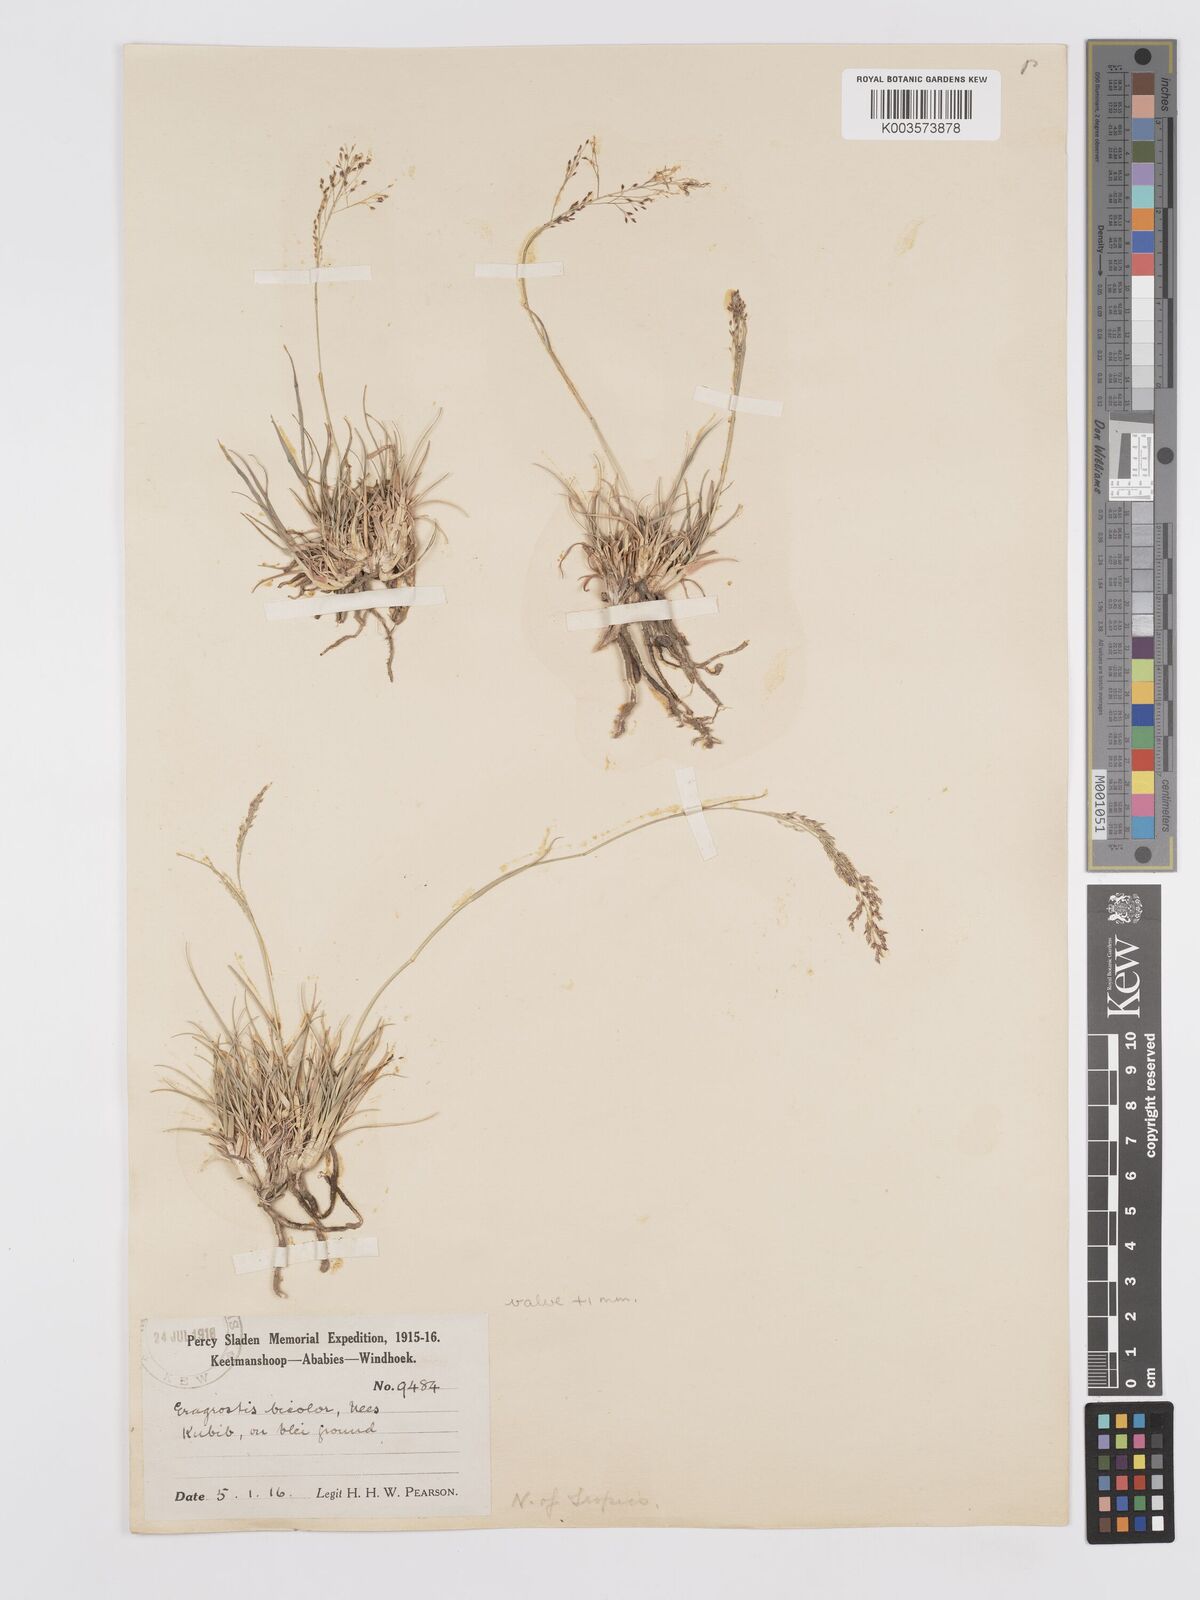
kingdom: Plantae
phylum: Tracheophyta
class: Liliopsida
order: Poales
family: Poaceae
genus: Eragrostis
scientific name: Eragrostis
